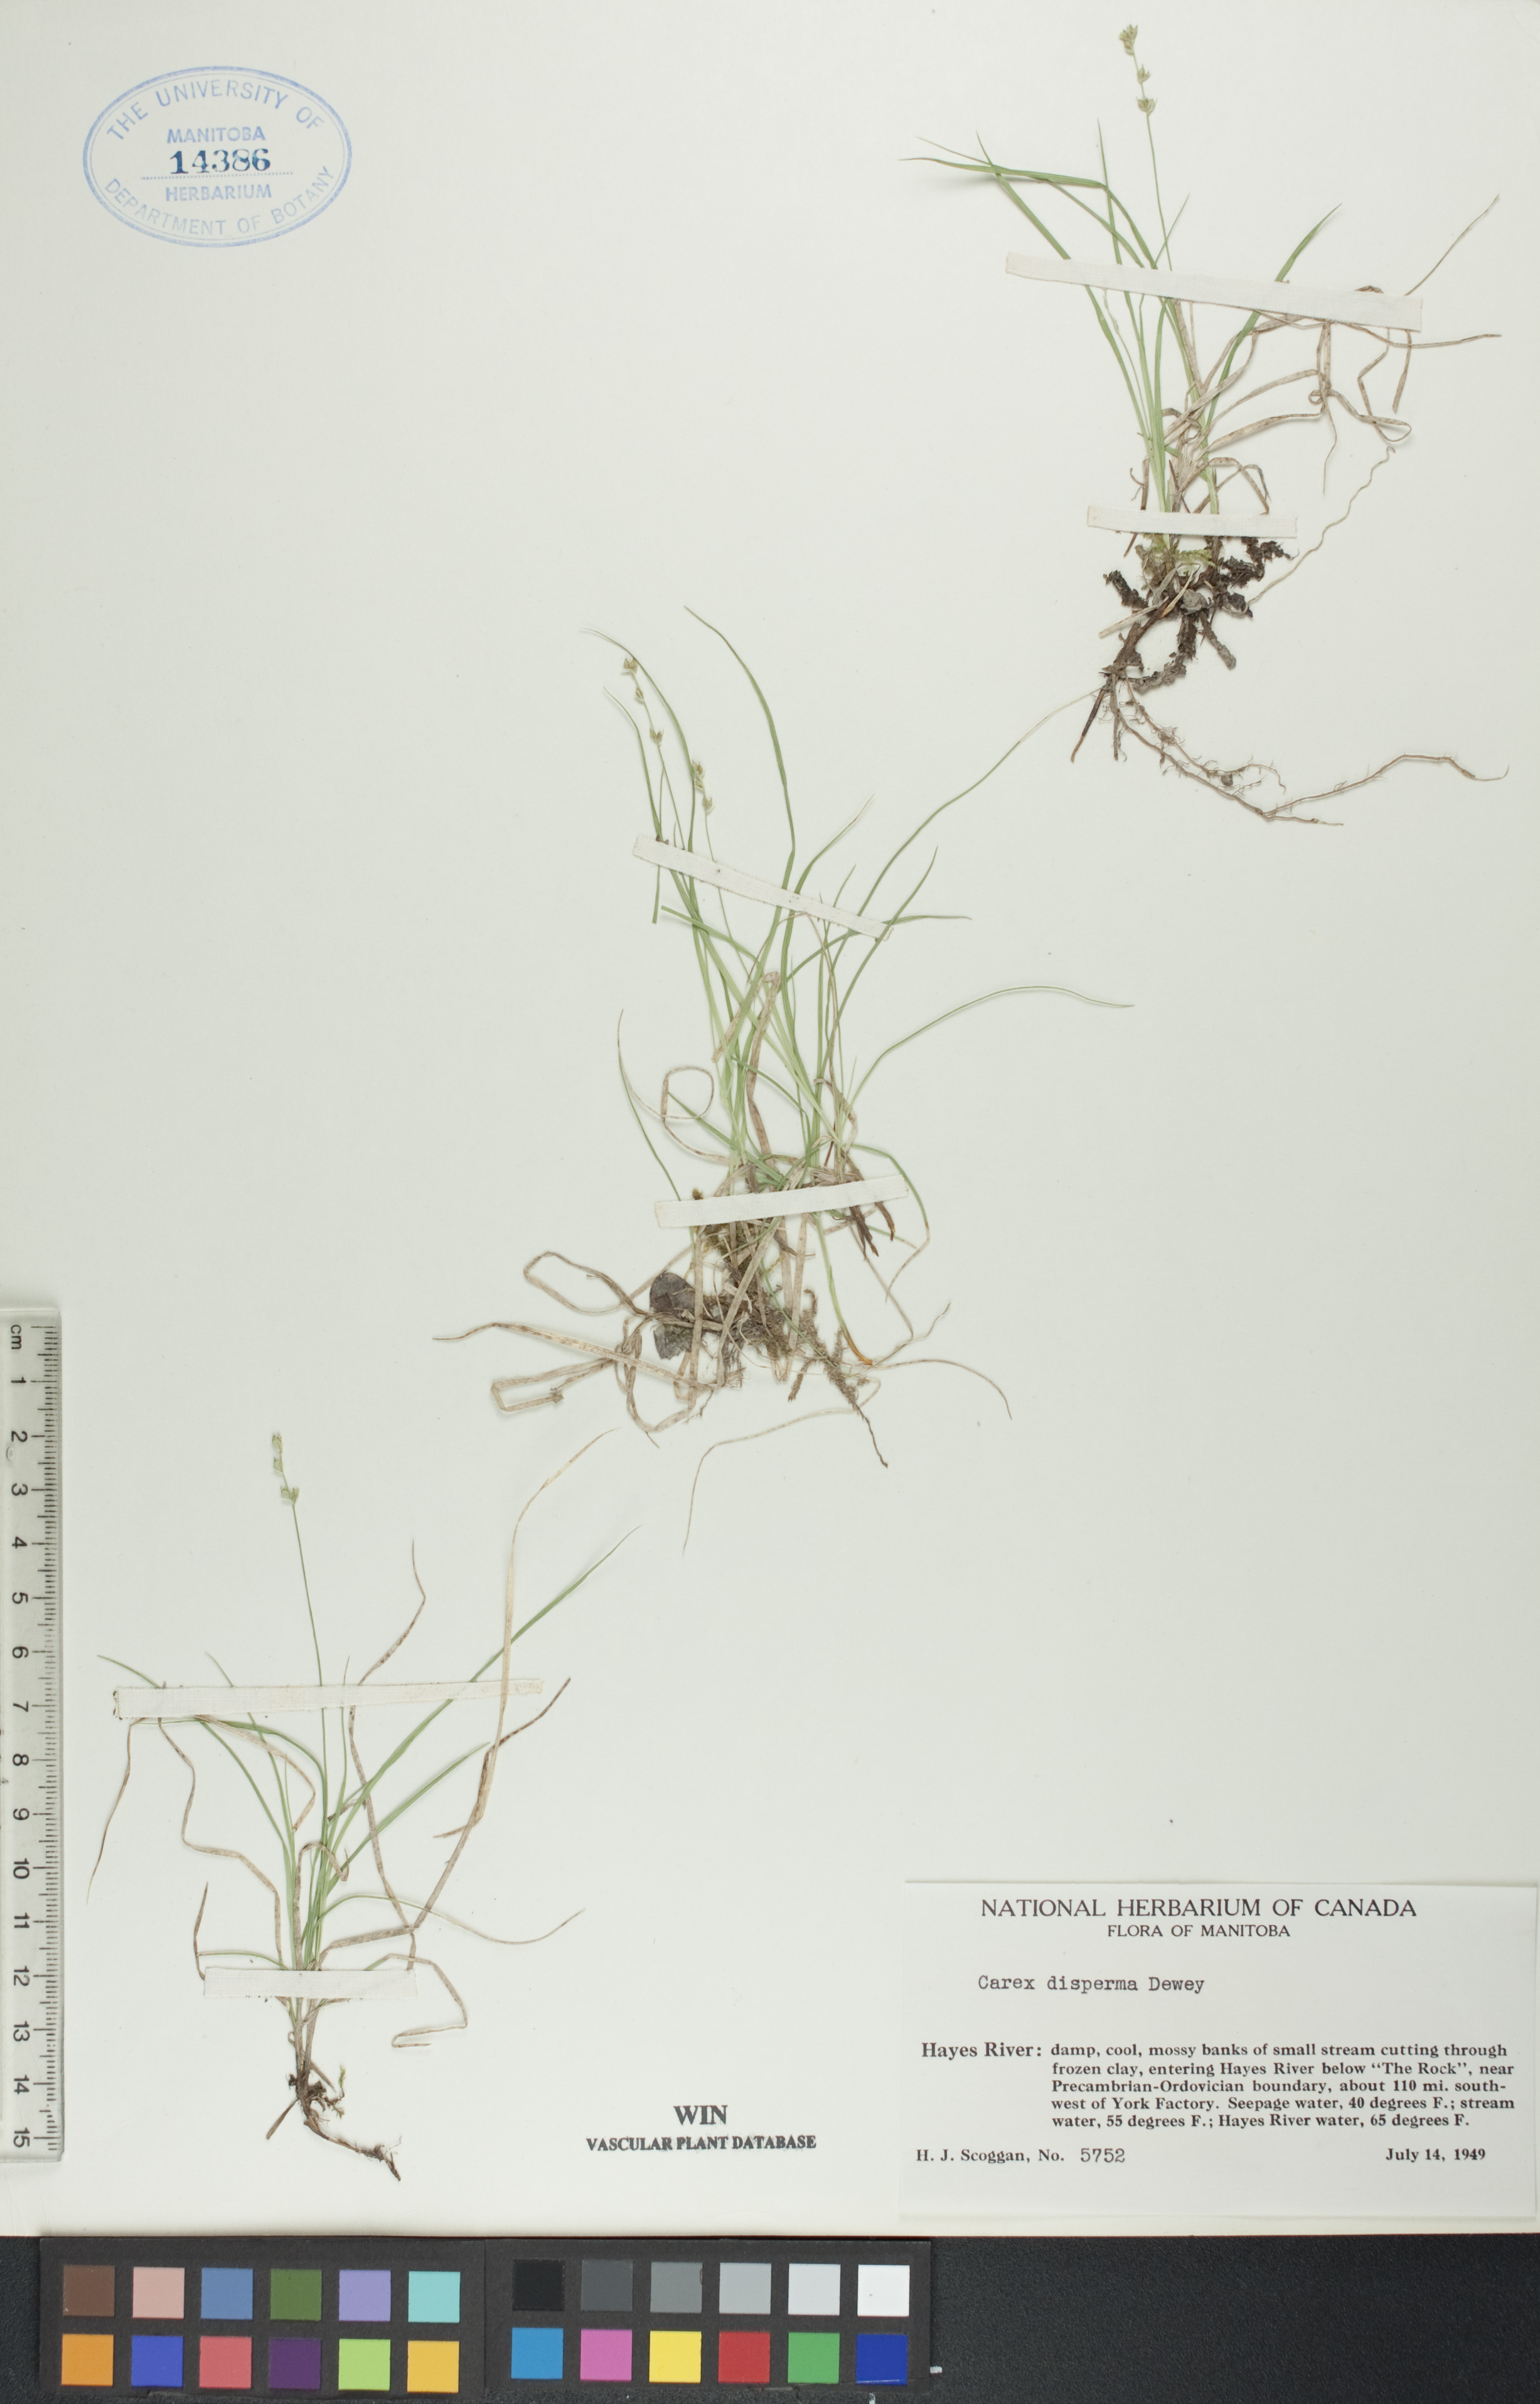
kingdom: Plantae
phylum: Tracheophyta
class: Liliopsida
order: Poales
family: Cyperaceae
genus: Carex
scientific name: Carex disperma
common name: Short-leaved sedge
